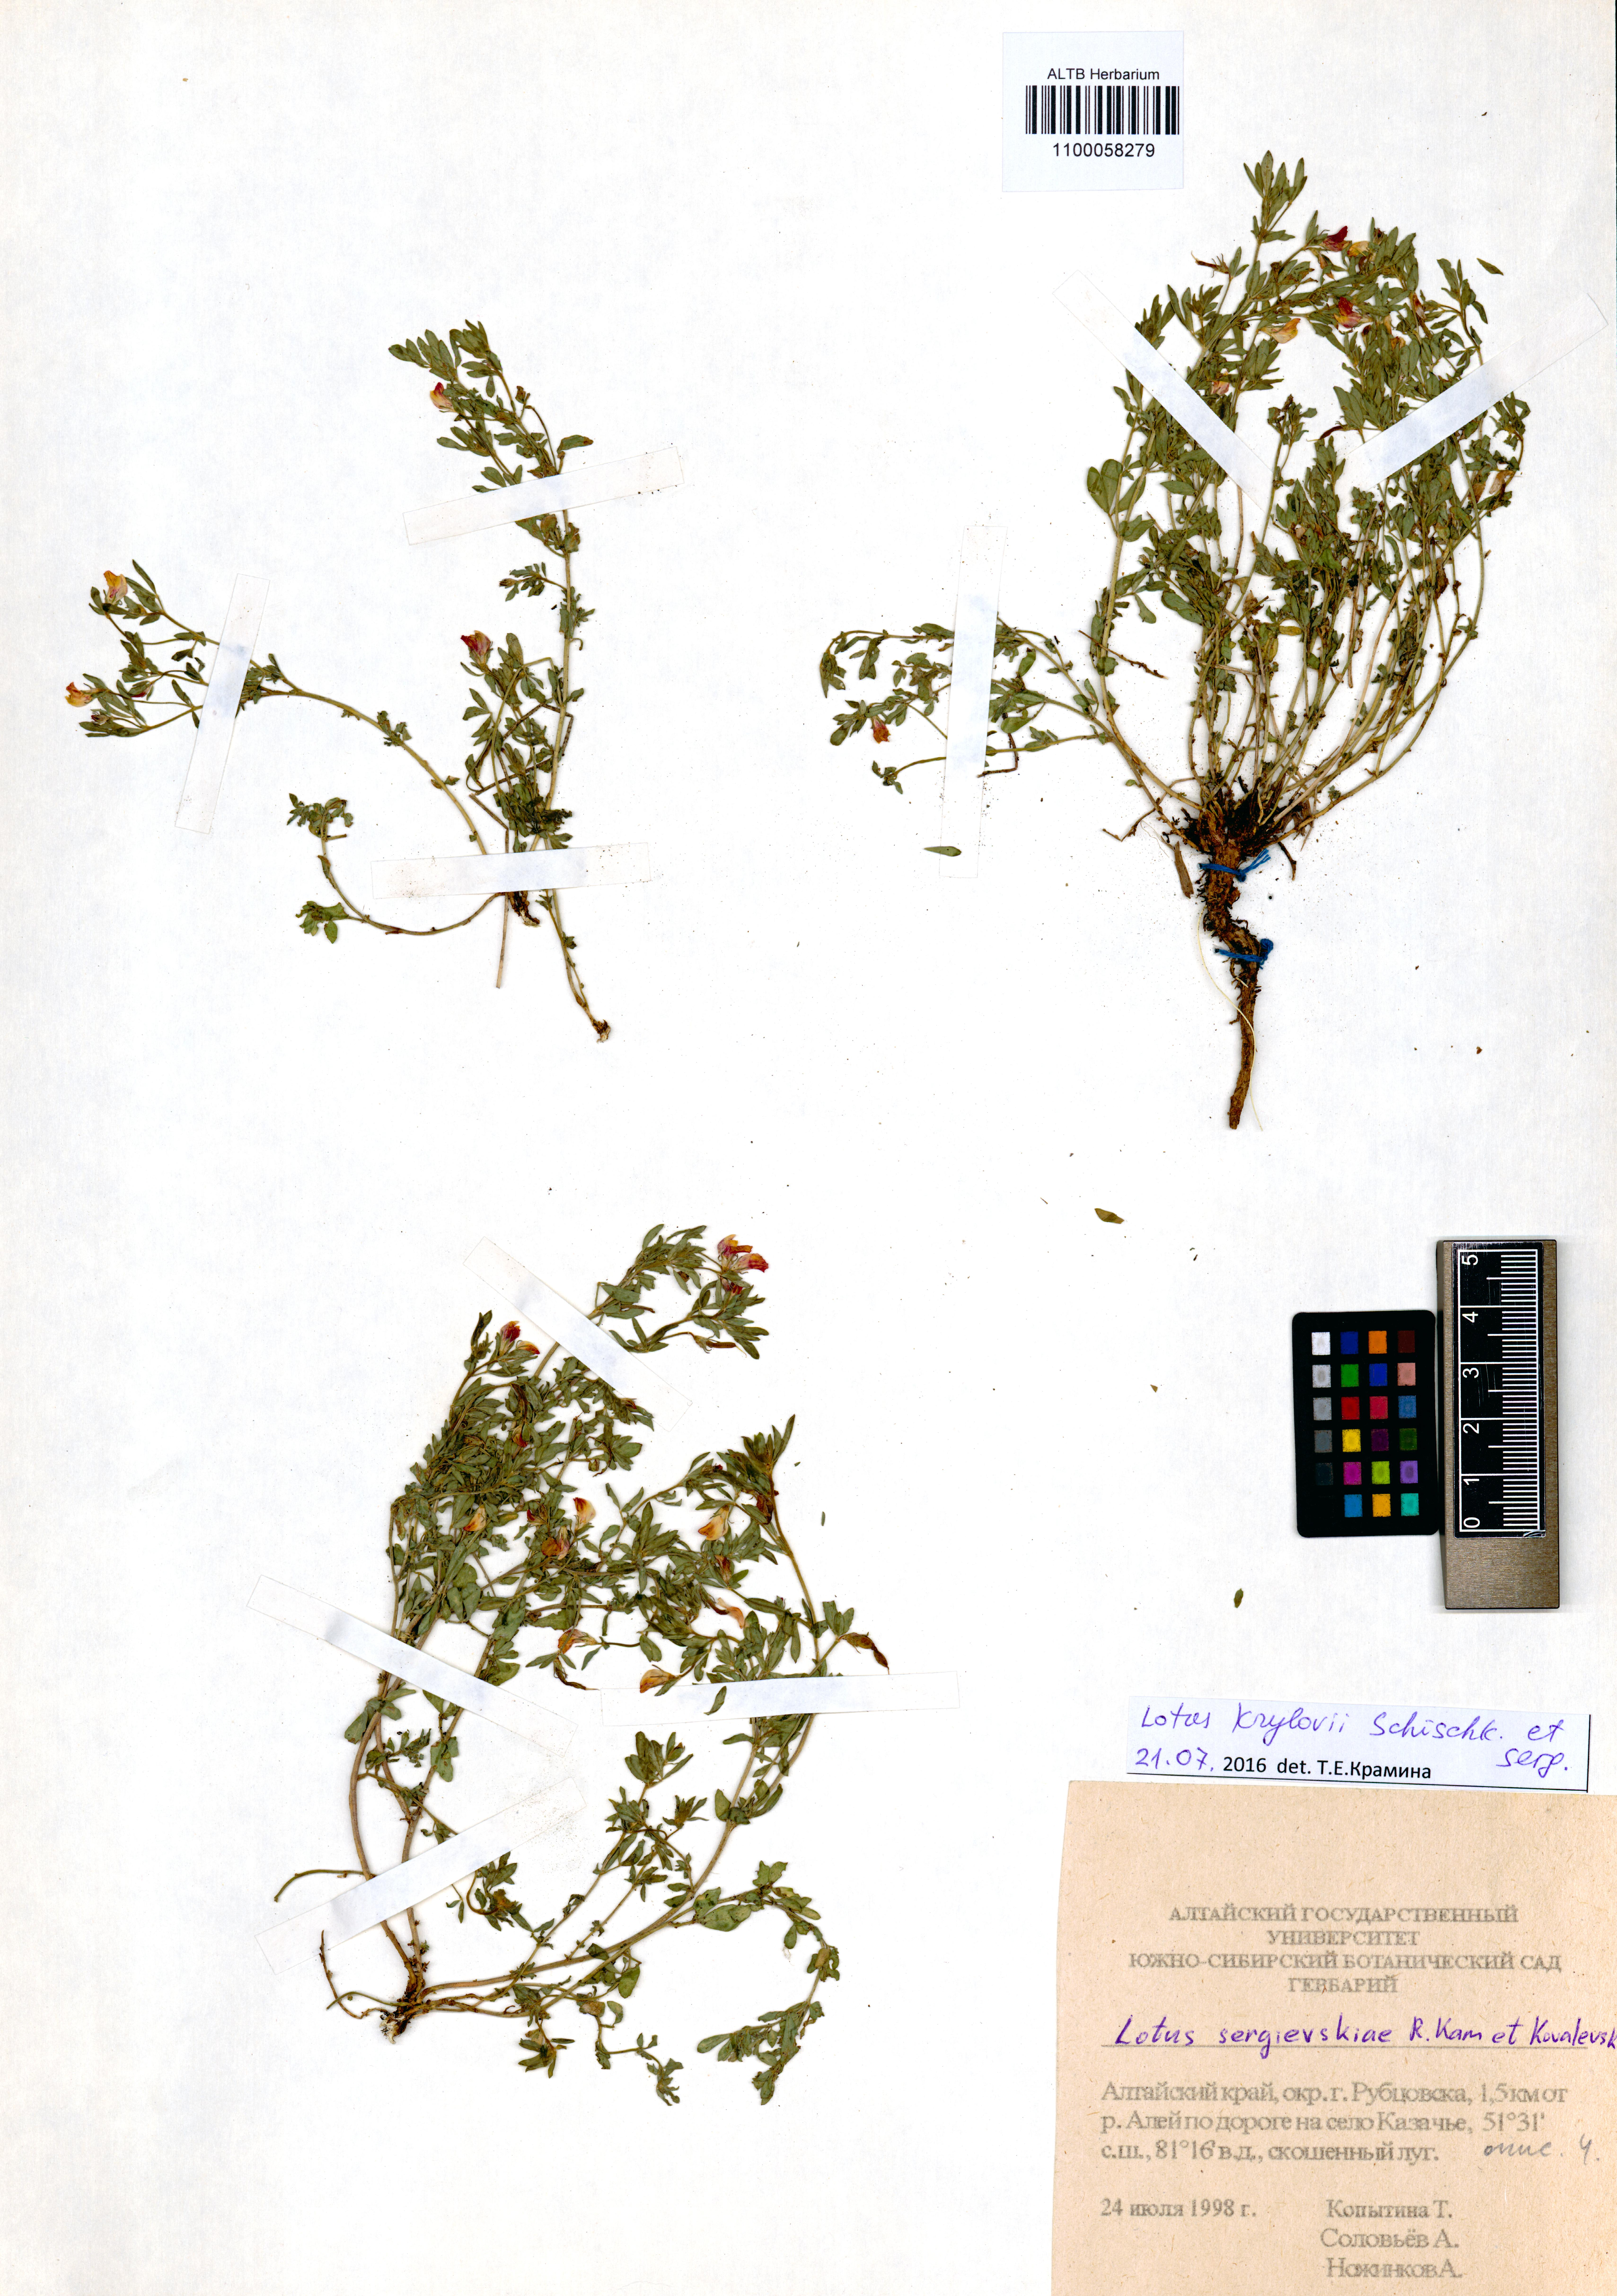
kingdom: Plantae
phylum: Tracheophyta
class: Magnoliopsida
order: Fabales
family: Fabaceae
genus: Lotus
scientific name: Lotus krylovii
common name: Krylov's bird's-foot trefoil
